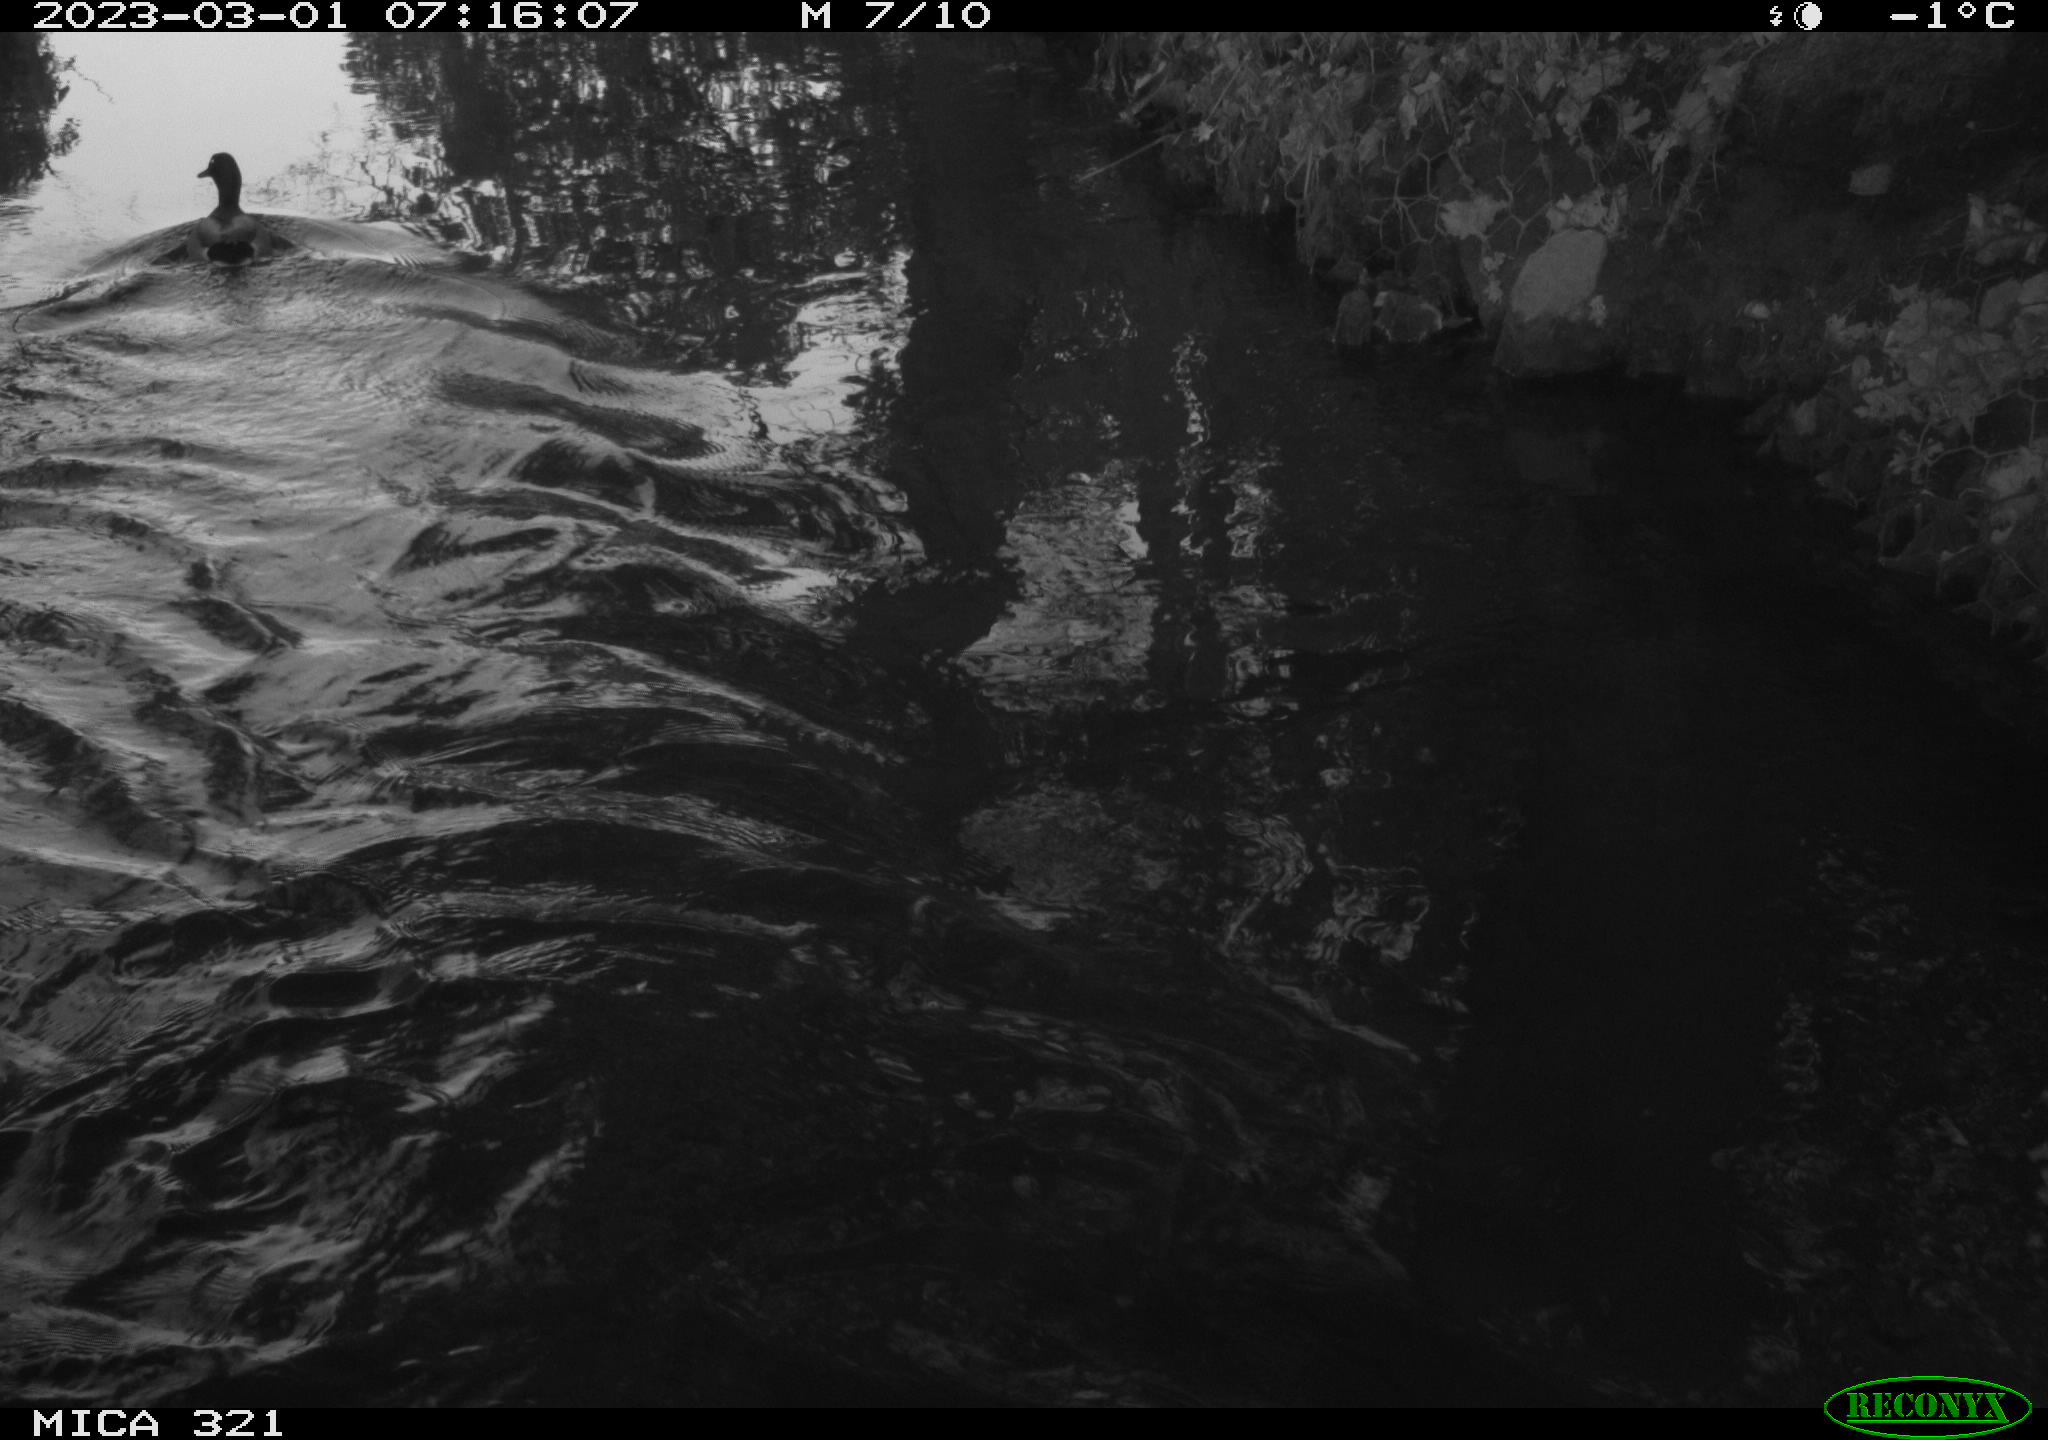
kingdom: Animalia
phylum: Chordata
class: Aves
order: Anseriformes
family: Anatidae
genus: Anas
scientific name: Anas
